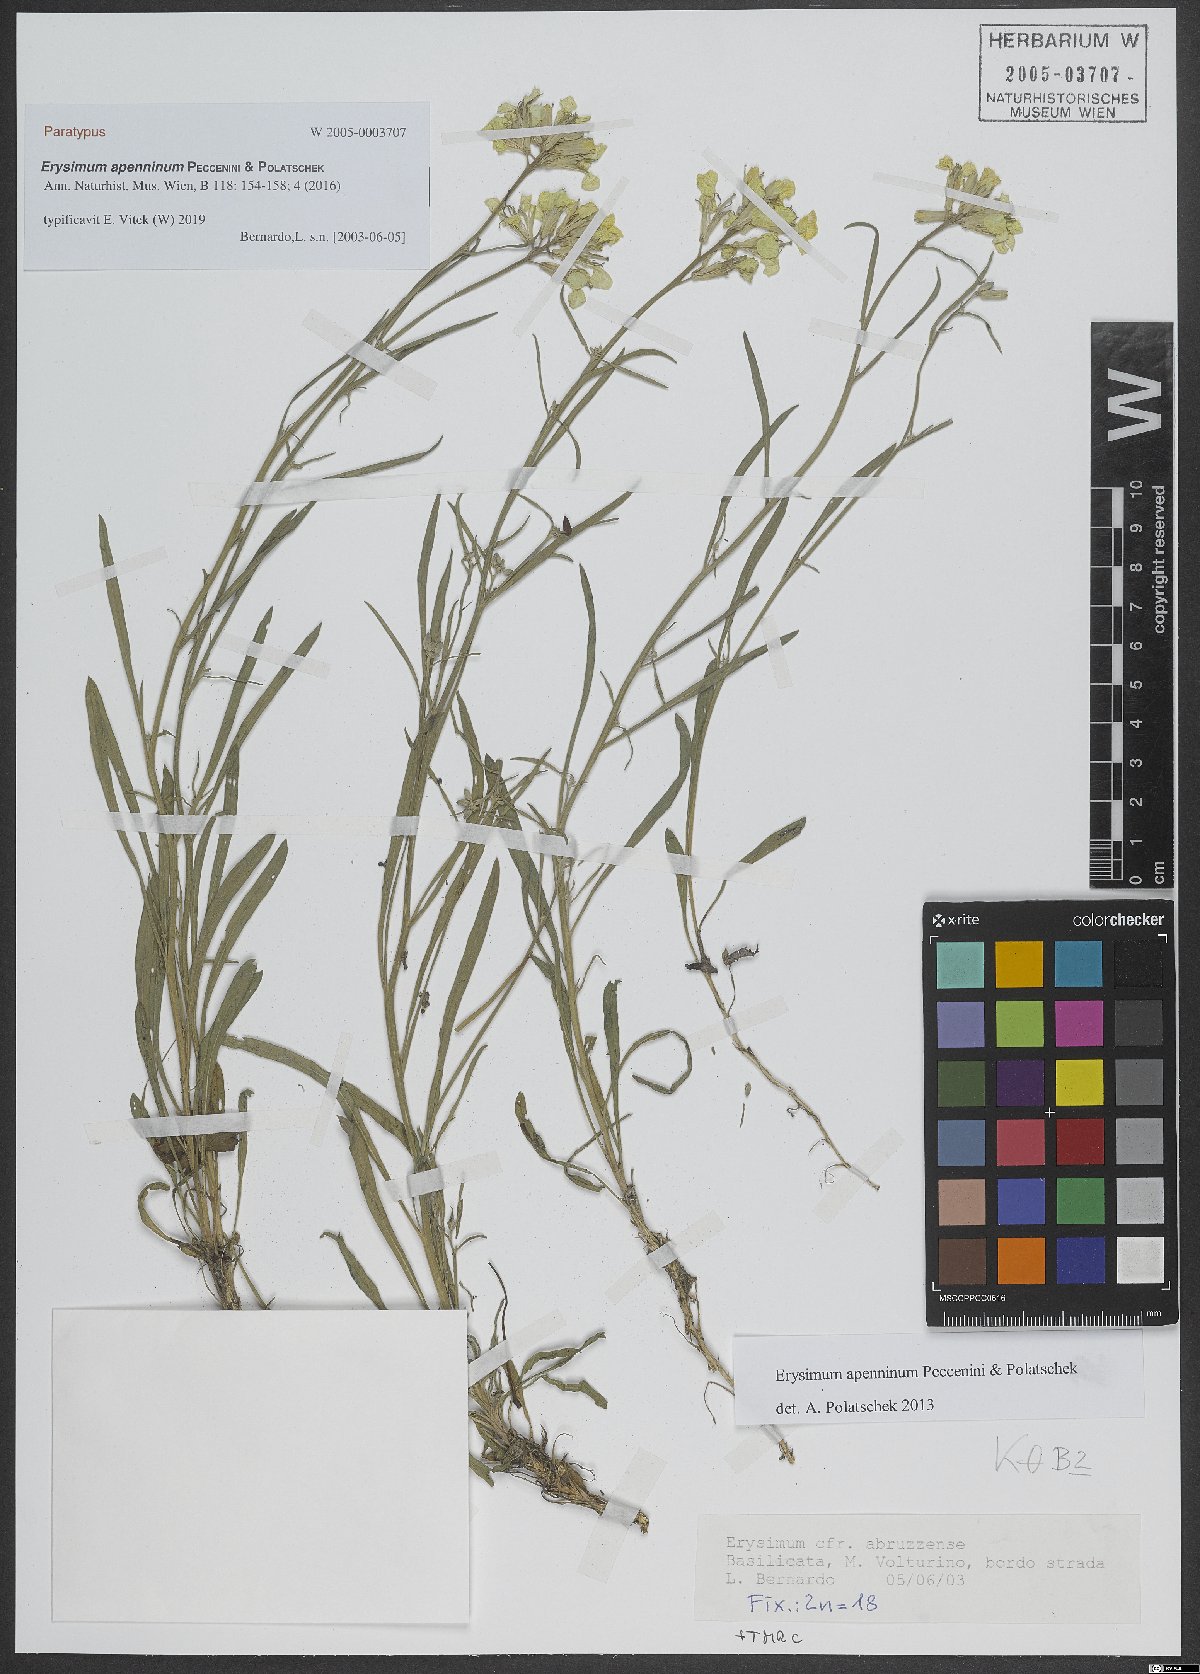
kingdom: Plantae
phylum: Tracheophyta
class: Magnoliopsida
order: Brassicales
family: Brassicaceae
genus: Erysimum
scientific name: Erysimum apenninum
